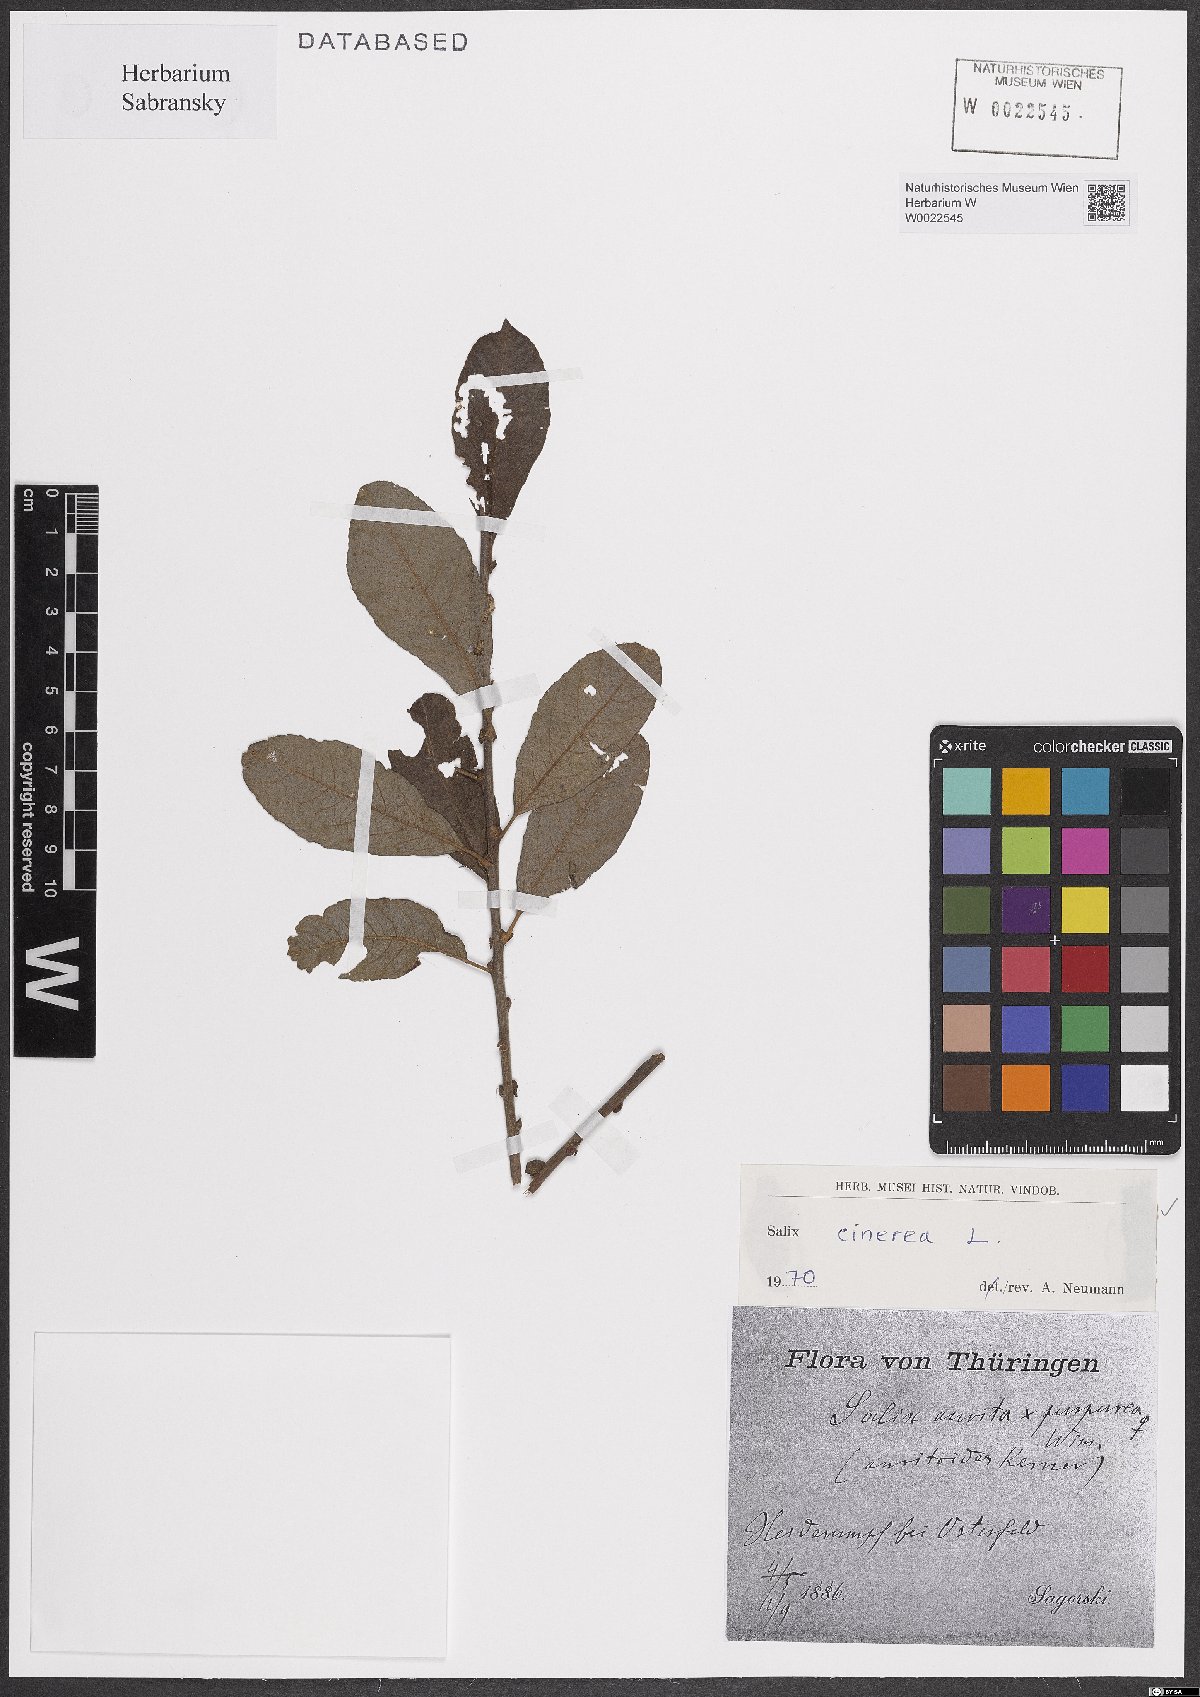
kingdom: Plantae
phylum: Tracheophyta
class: Magnoliopsida
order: Malpighiales
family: Salicaceae
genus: Salix
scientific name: Salix cinerea
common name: Common sallow
